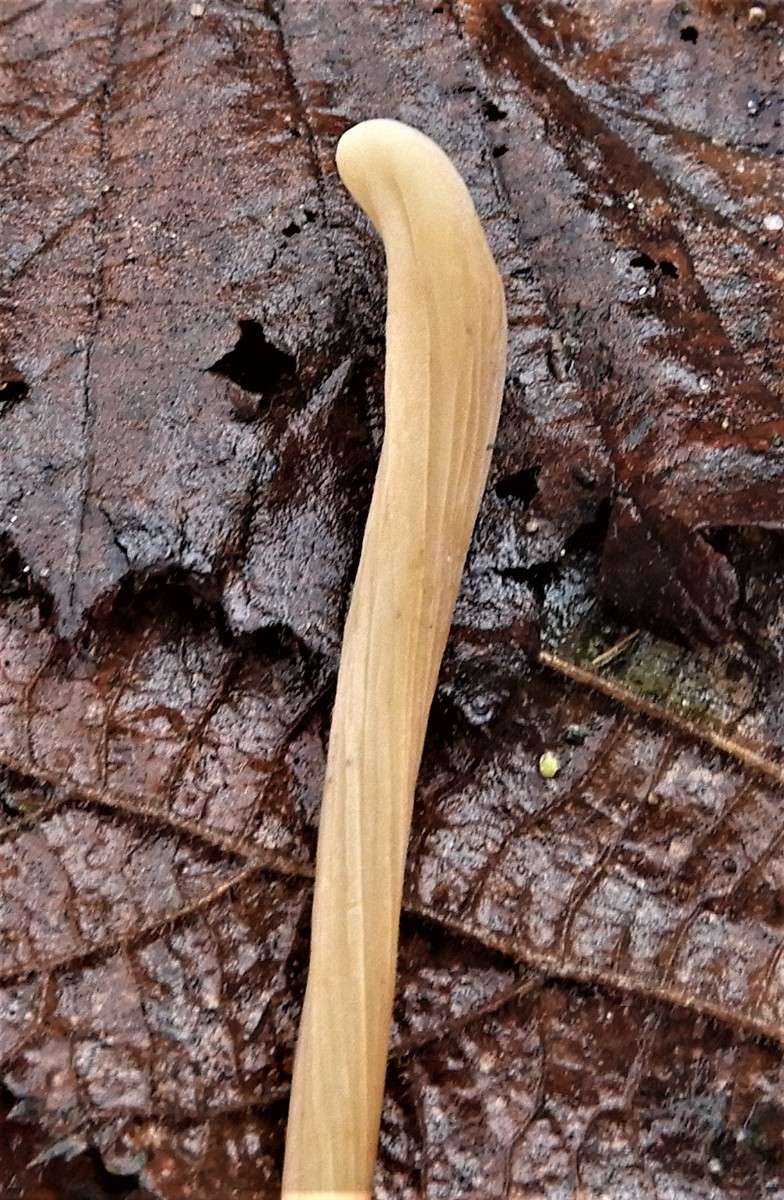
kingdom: Fungi
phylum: Basidiomycota
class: Agaricomycetes
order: Agaricales
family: Typhulaceae
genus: Typhula
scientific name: Typhula fistulosa
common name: pibet rørkølle
